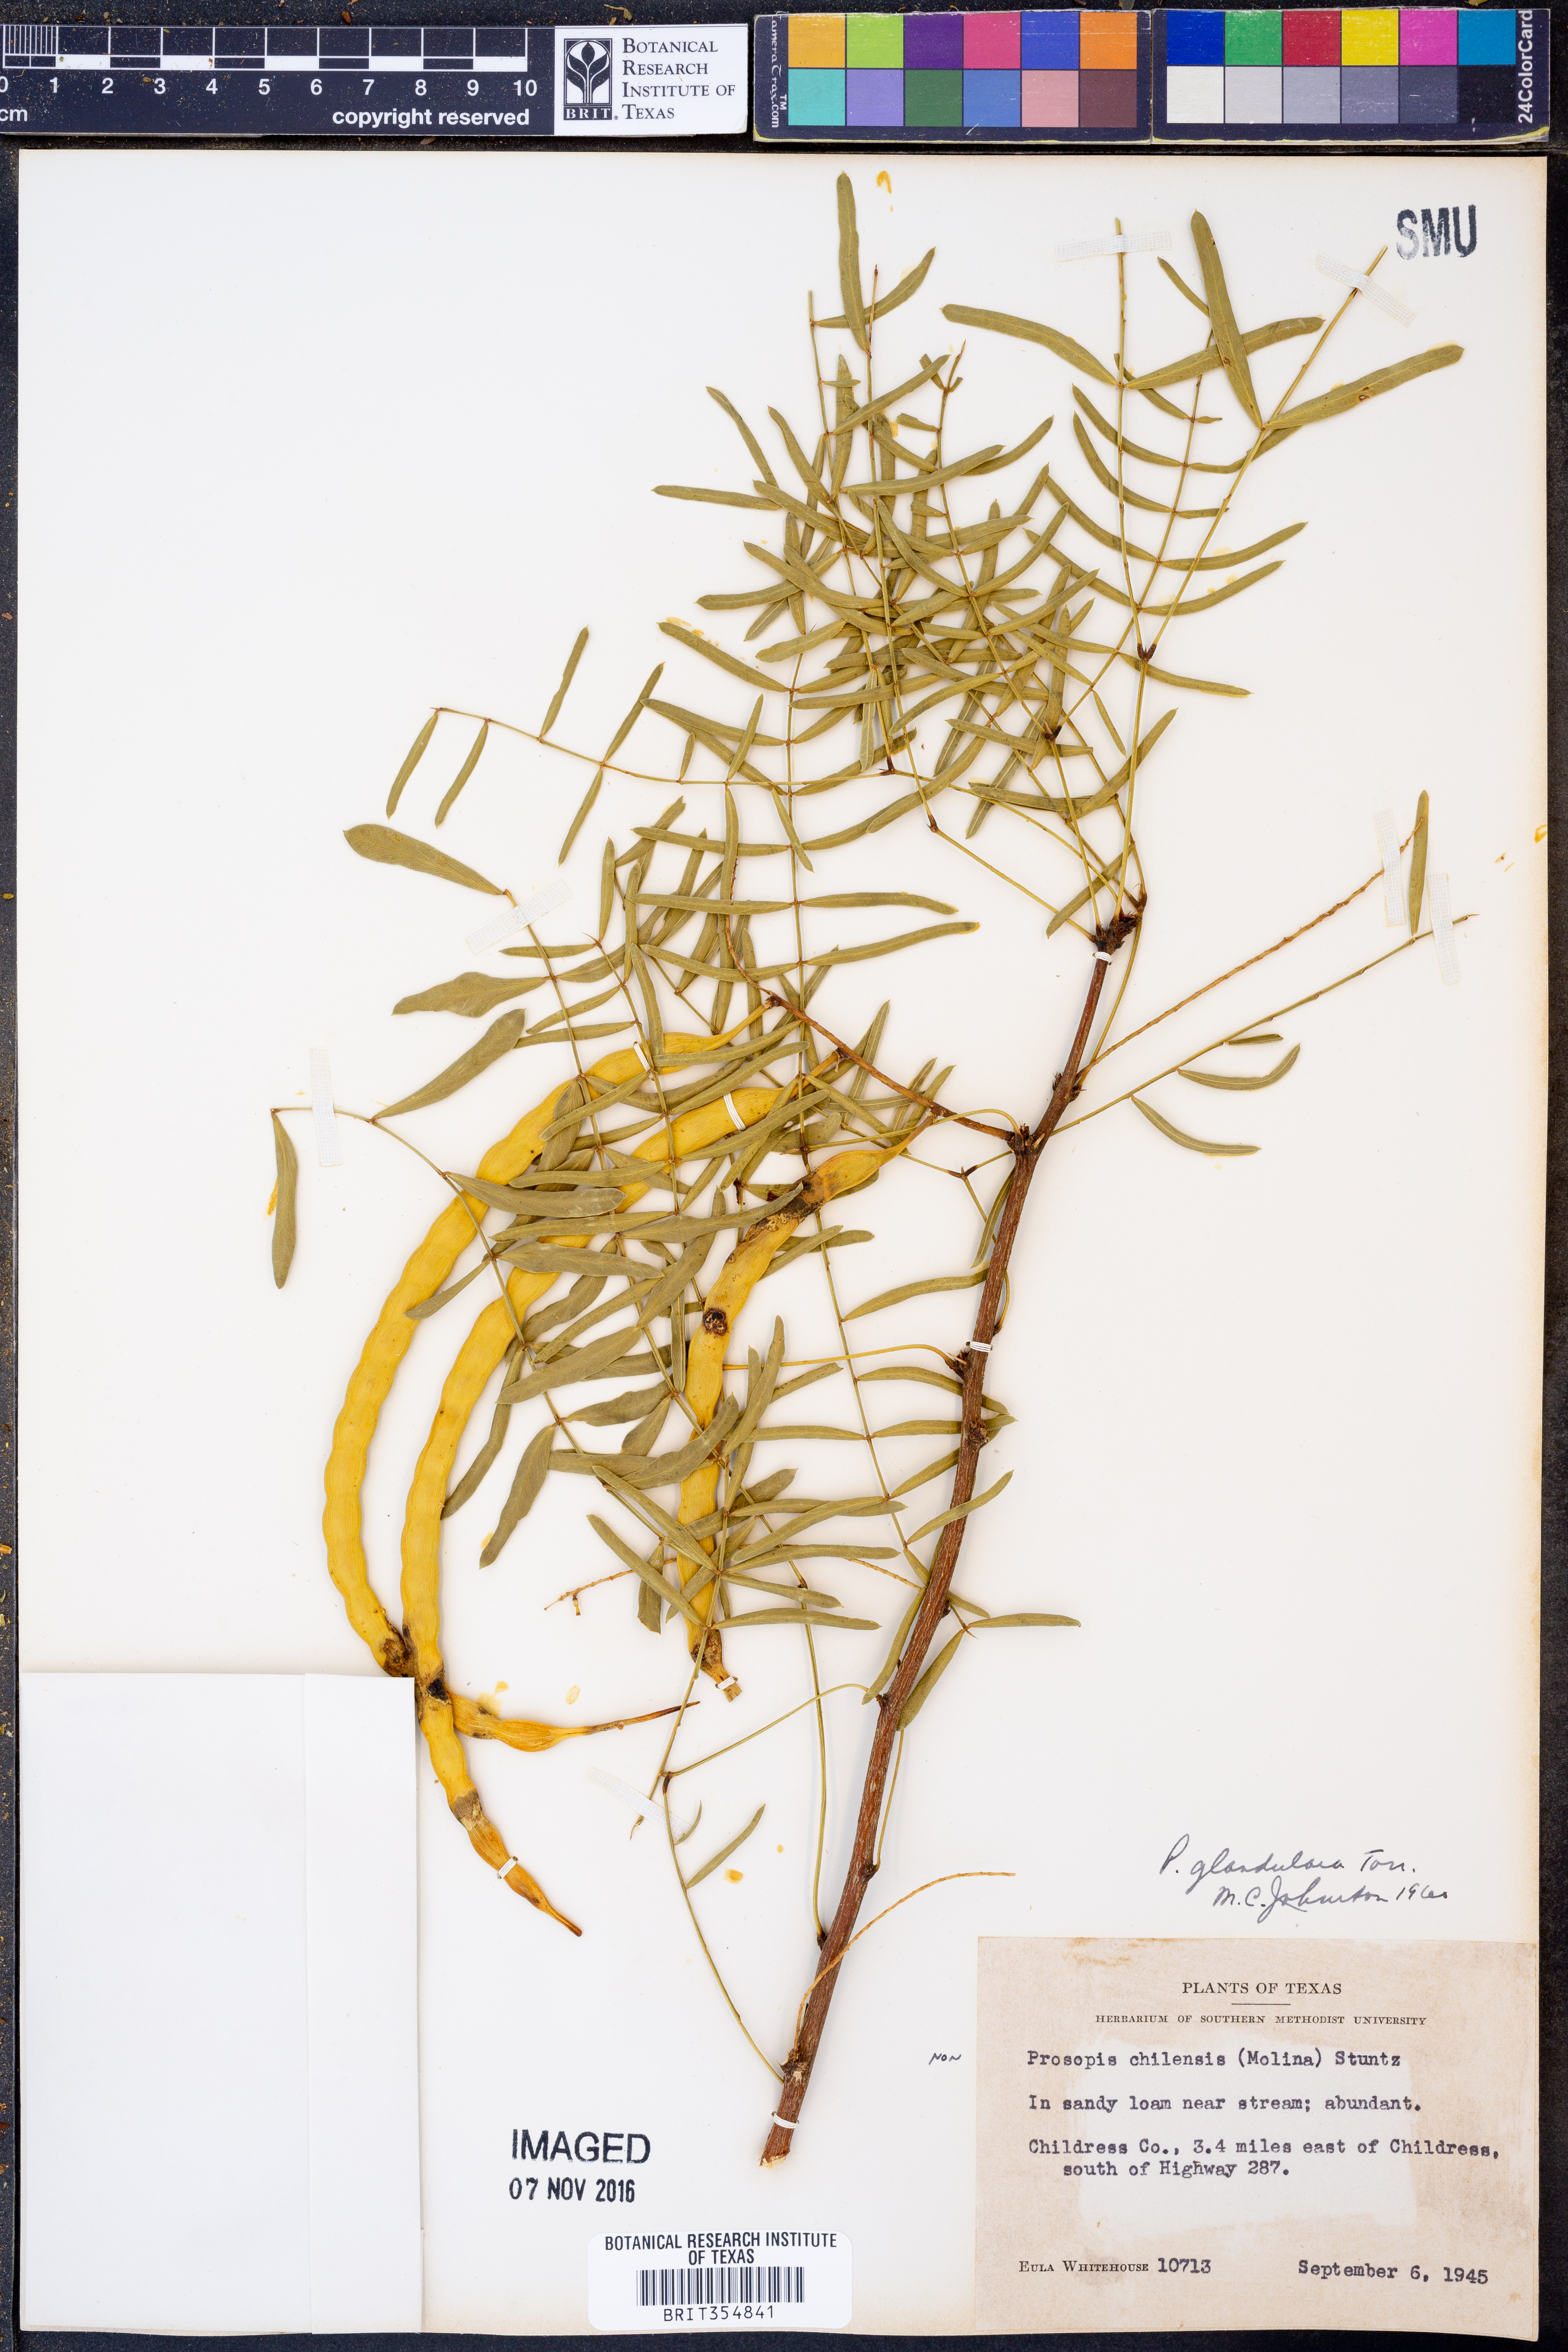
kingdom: Plantae
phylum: Tracheophyta
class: Magnoliopsida
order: Fabales
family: Fabaceae
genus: Prosopis
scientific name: Prosopis glandulosa
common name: Honey mesquite
